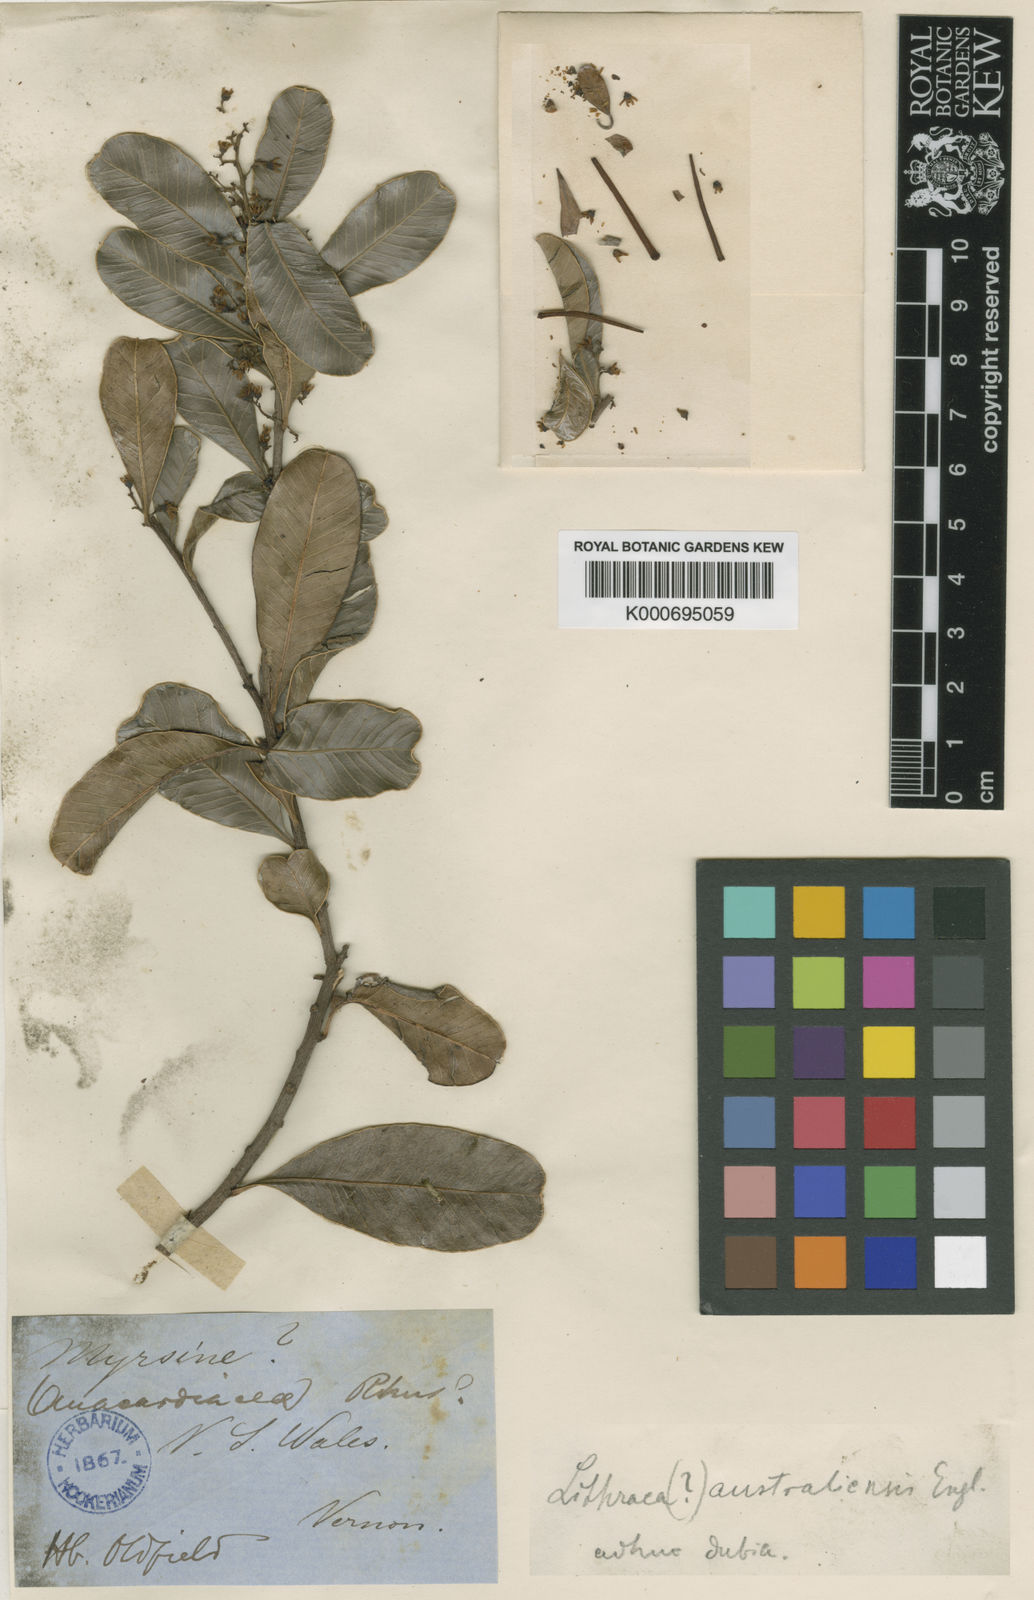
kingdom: Plantae
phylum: Tracheophyta
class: Magnoliopsida
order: Sapindales
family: Anacardiaceae
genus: Semecarpus
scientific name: Semecarpus australiensis
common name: Cedar-plum
